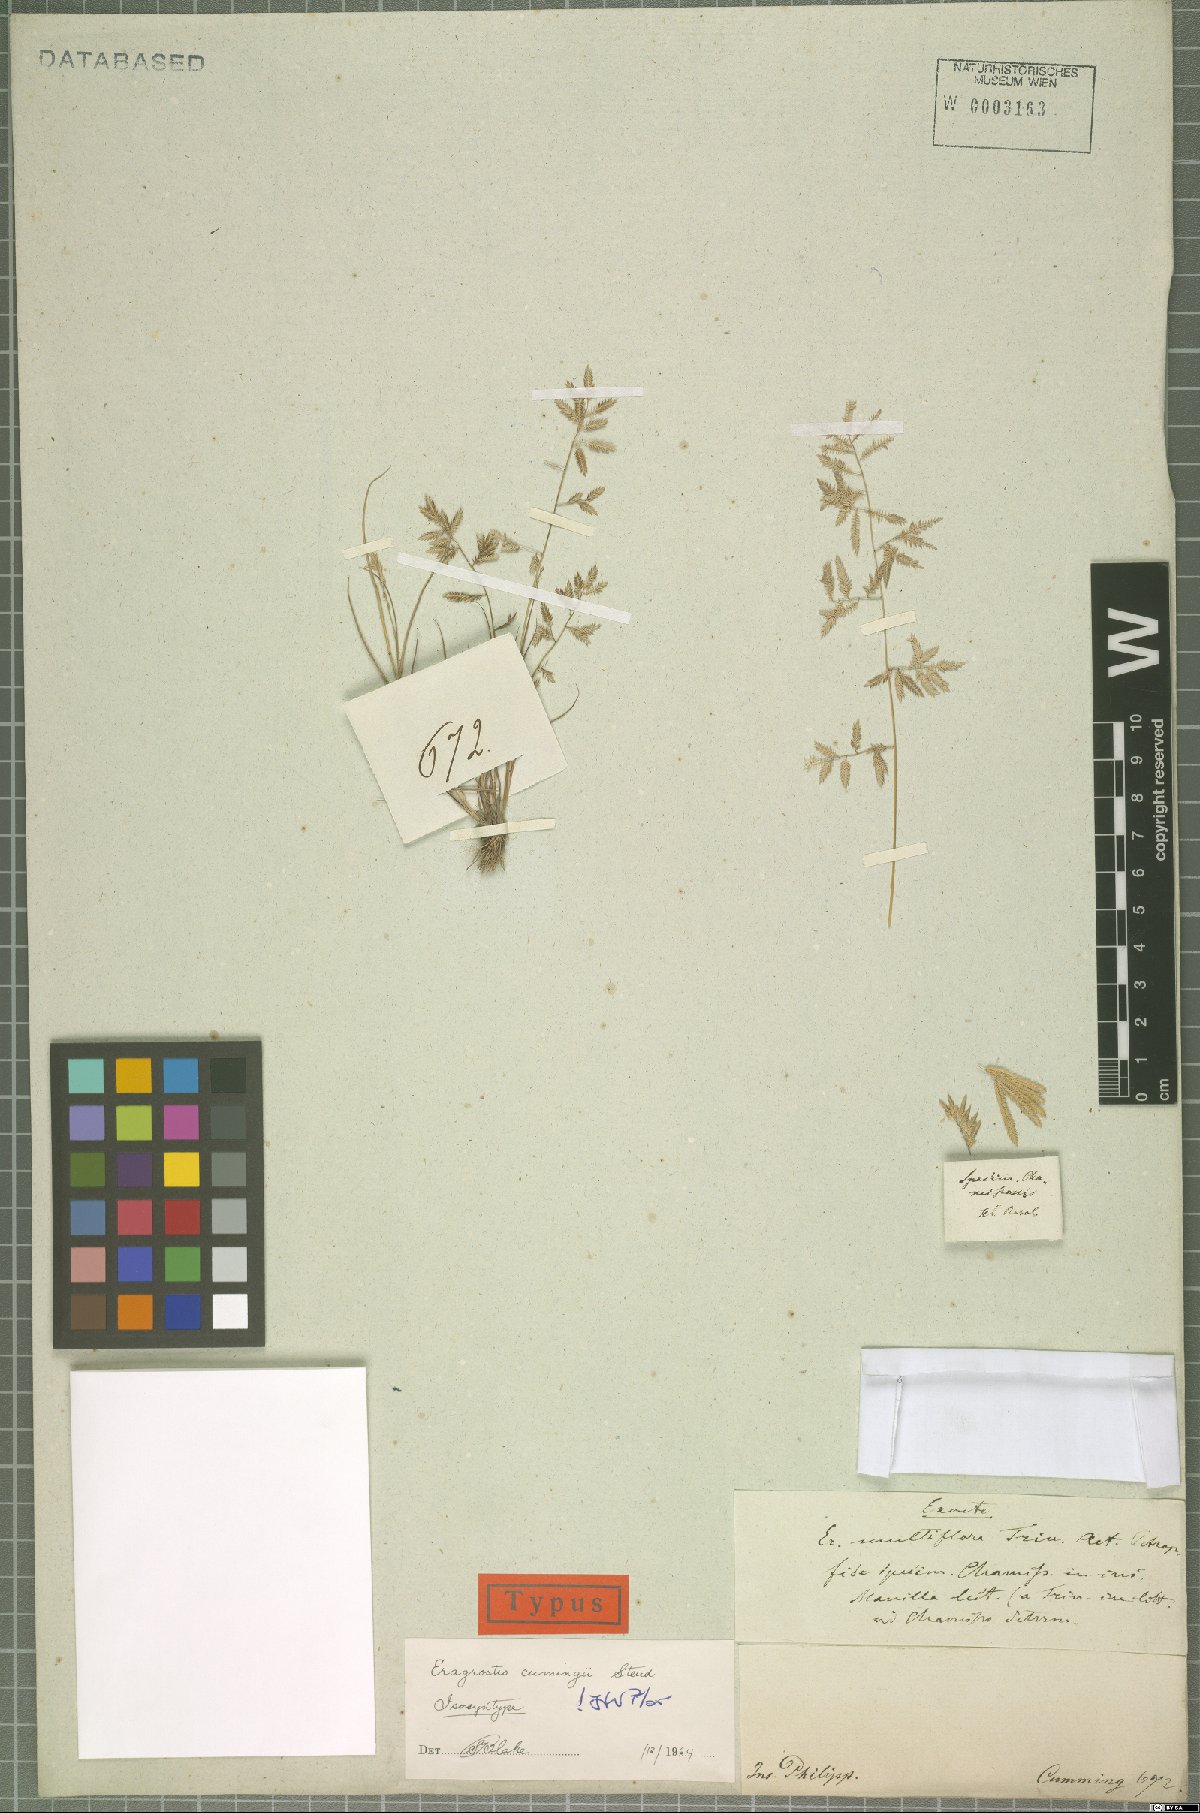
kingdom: Plantae
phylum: Tracheophyta
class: Liliopsida
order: Poales
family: Poaceae
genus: Eragrostis
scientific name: Eragrostis cumingii
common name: Cuming's lovegrass
